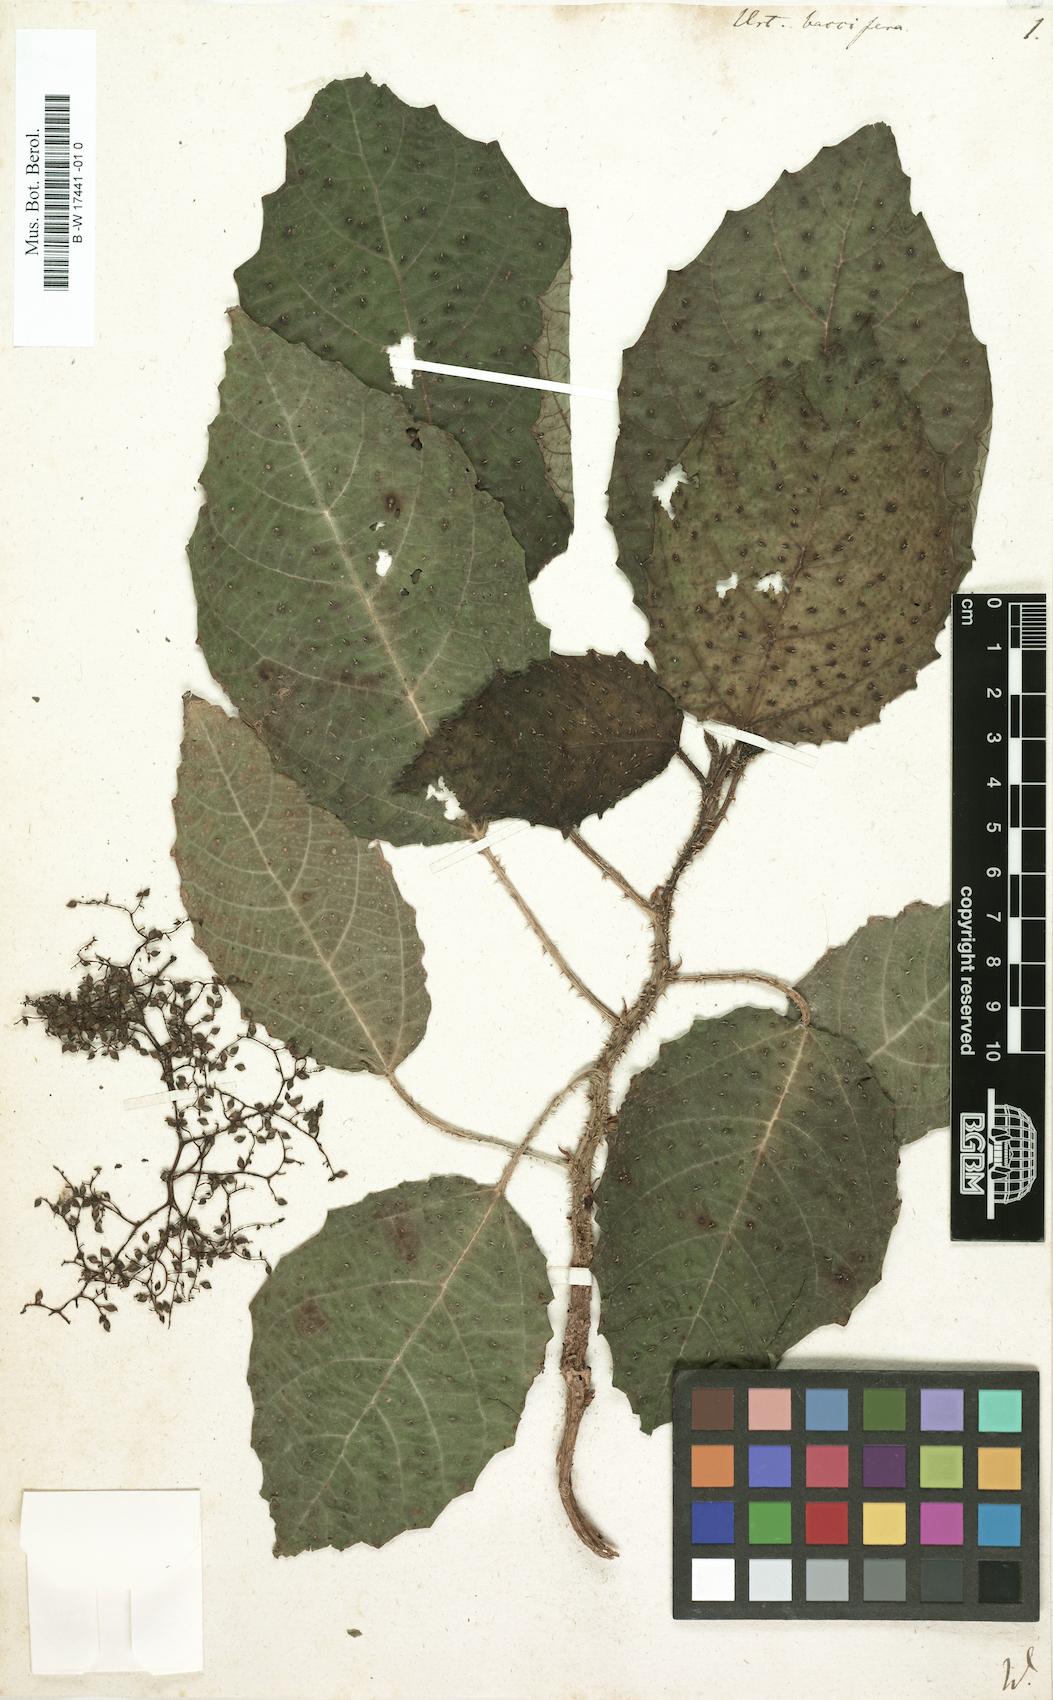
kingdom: Plantae
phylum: Tracheophyta
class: Magnoliopsida
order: Rosales
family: Urticaceae
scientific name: Urticaceae
